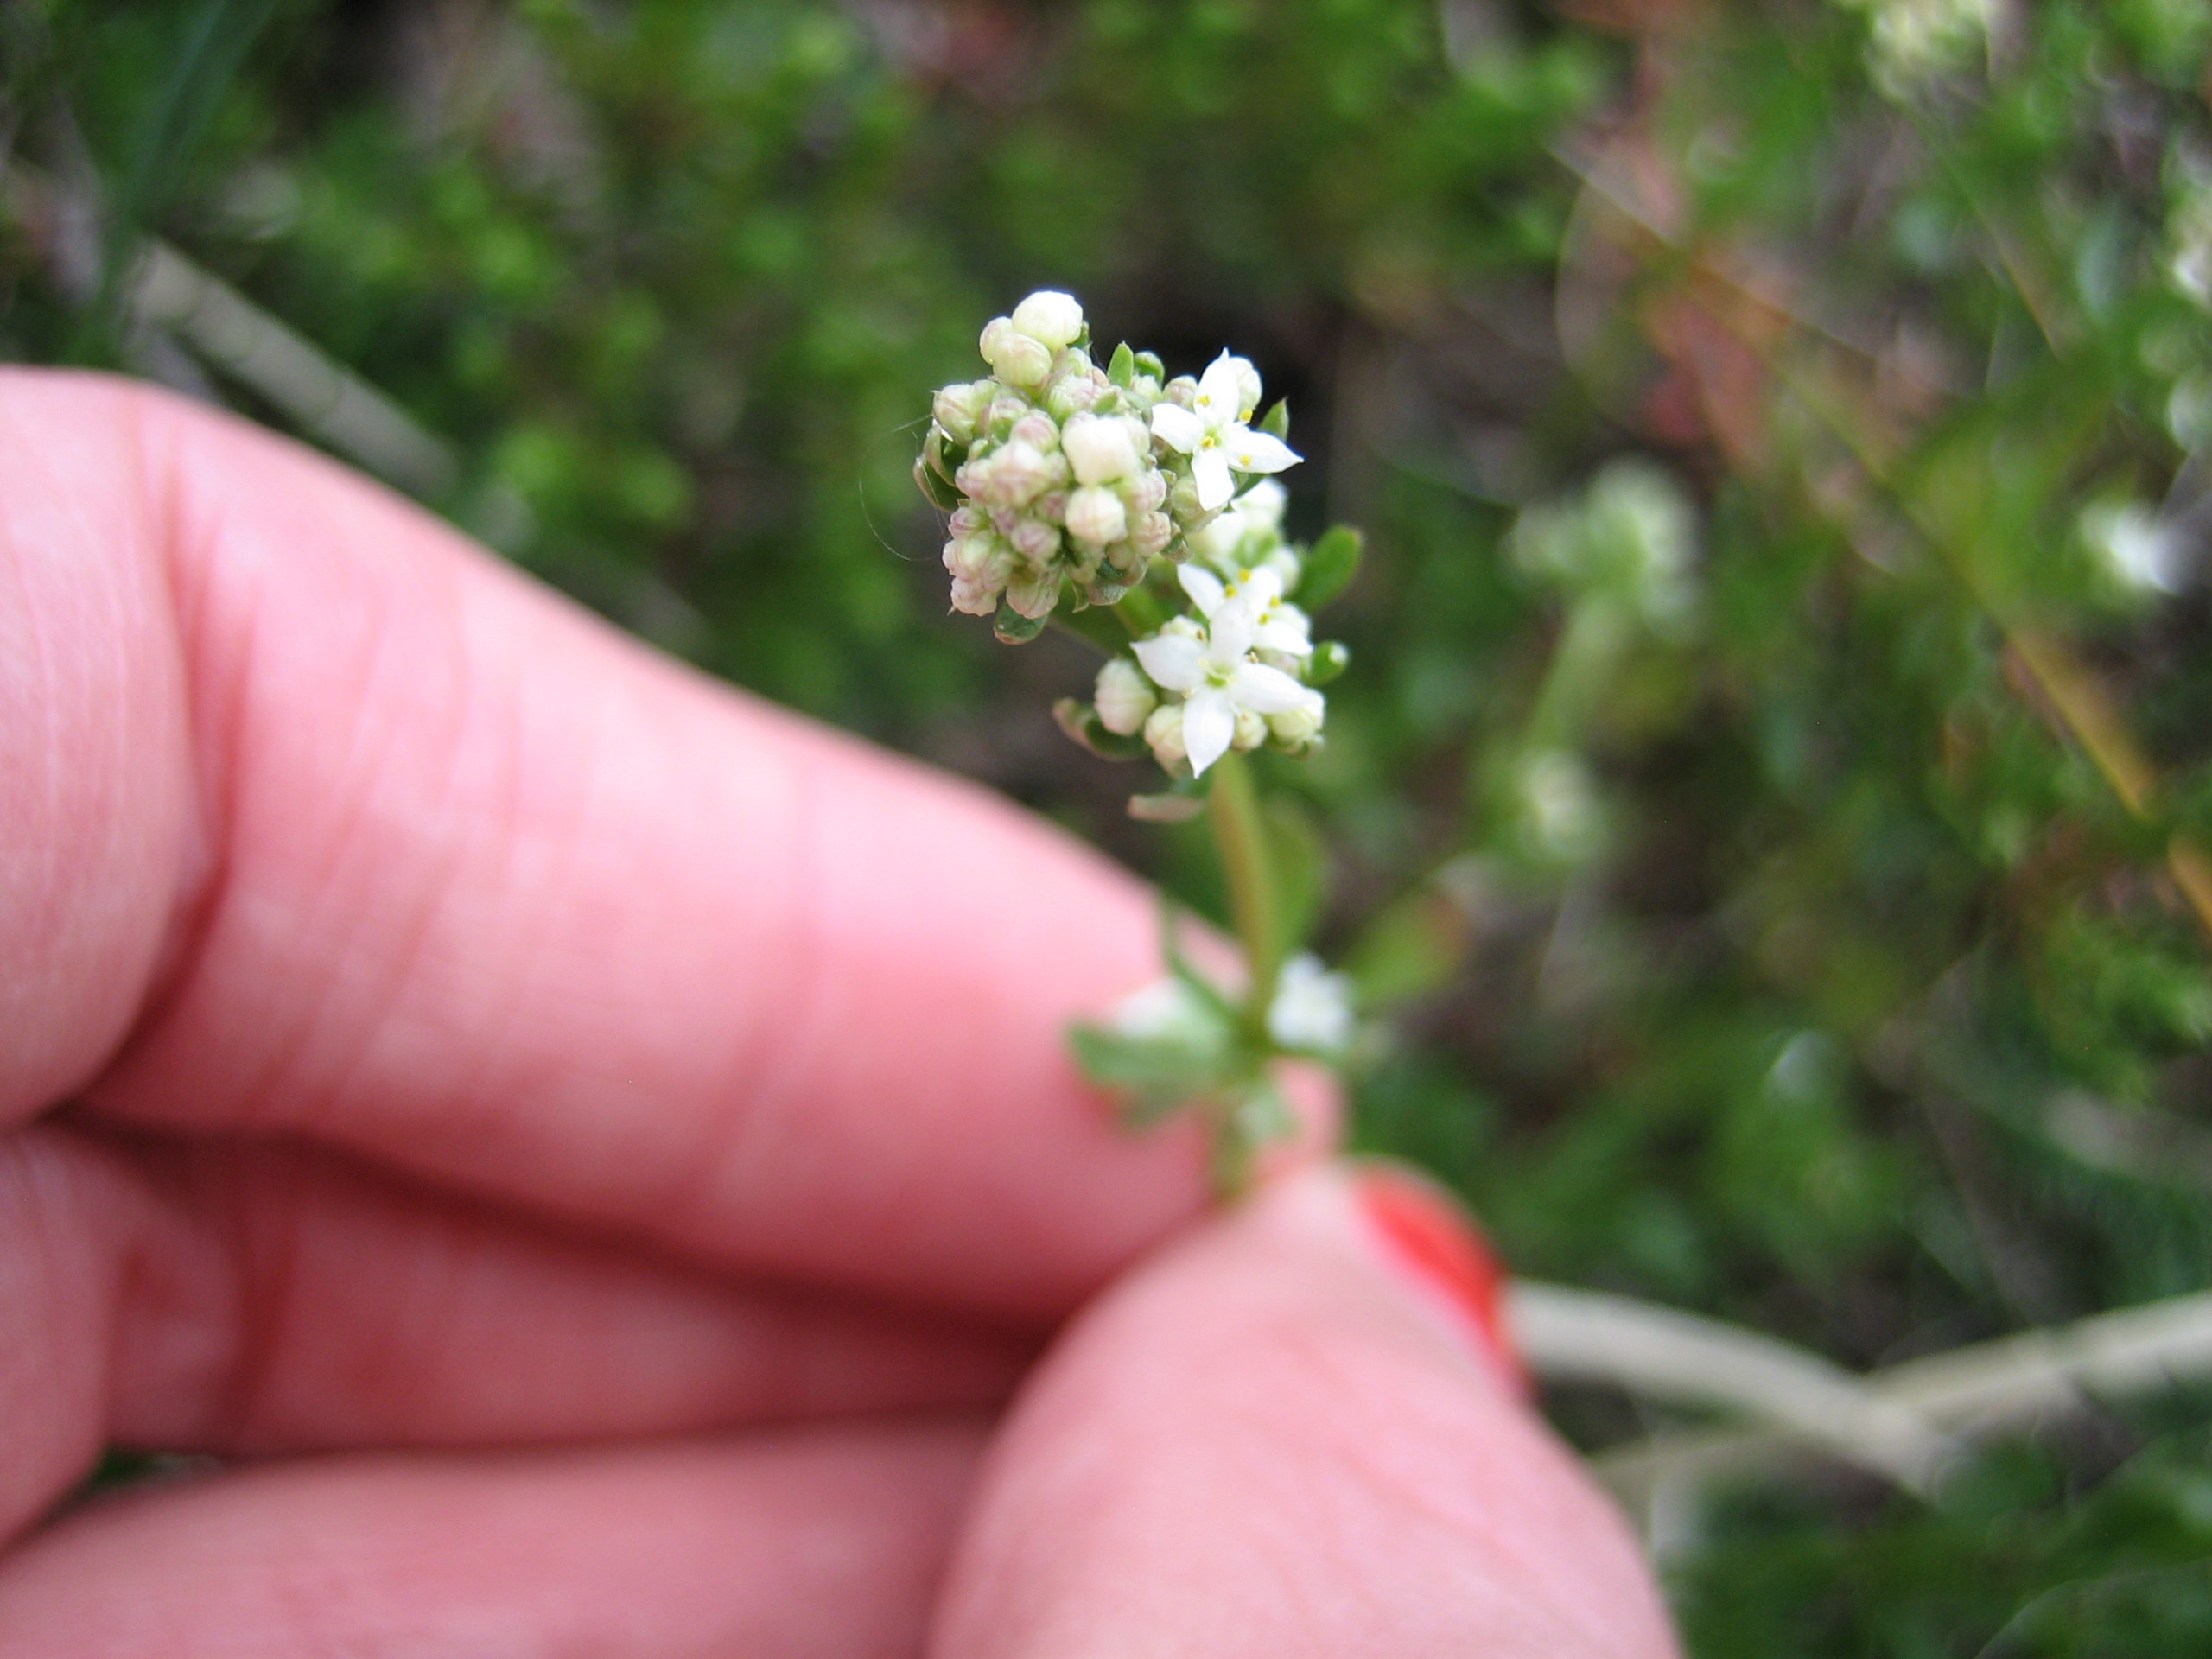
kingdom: Plantae
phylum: Tracheophyta
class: Magnoliopsida
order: Gentianales
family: Rubiaceae
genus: Galium
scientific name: Galium saxatile
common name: Lyng-snerre
